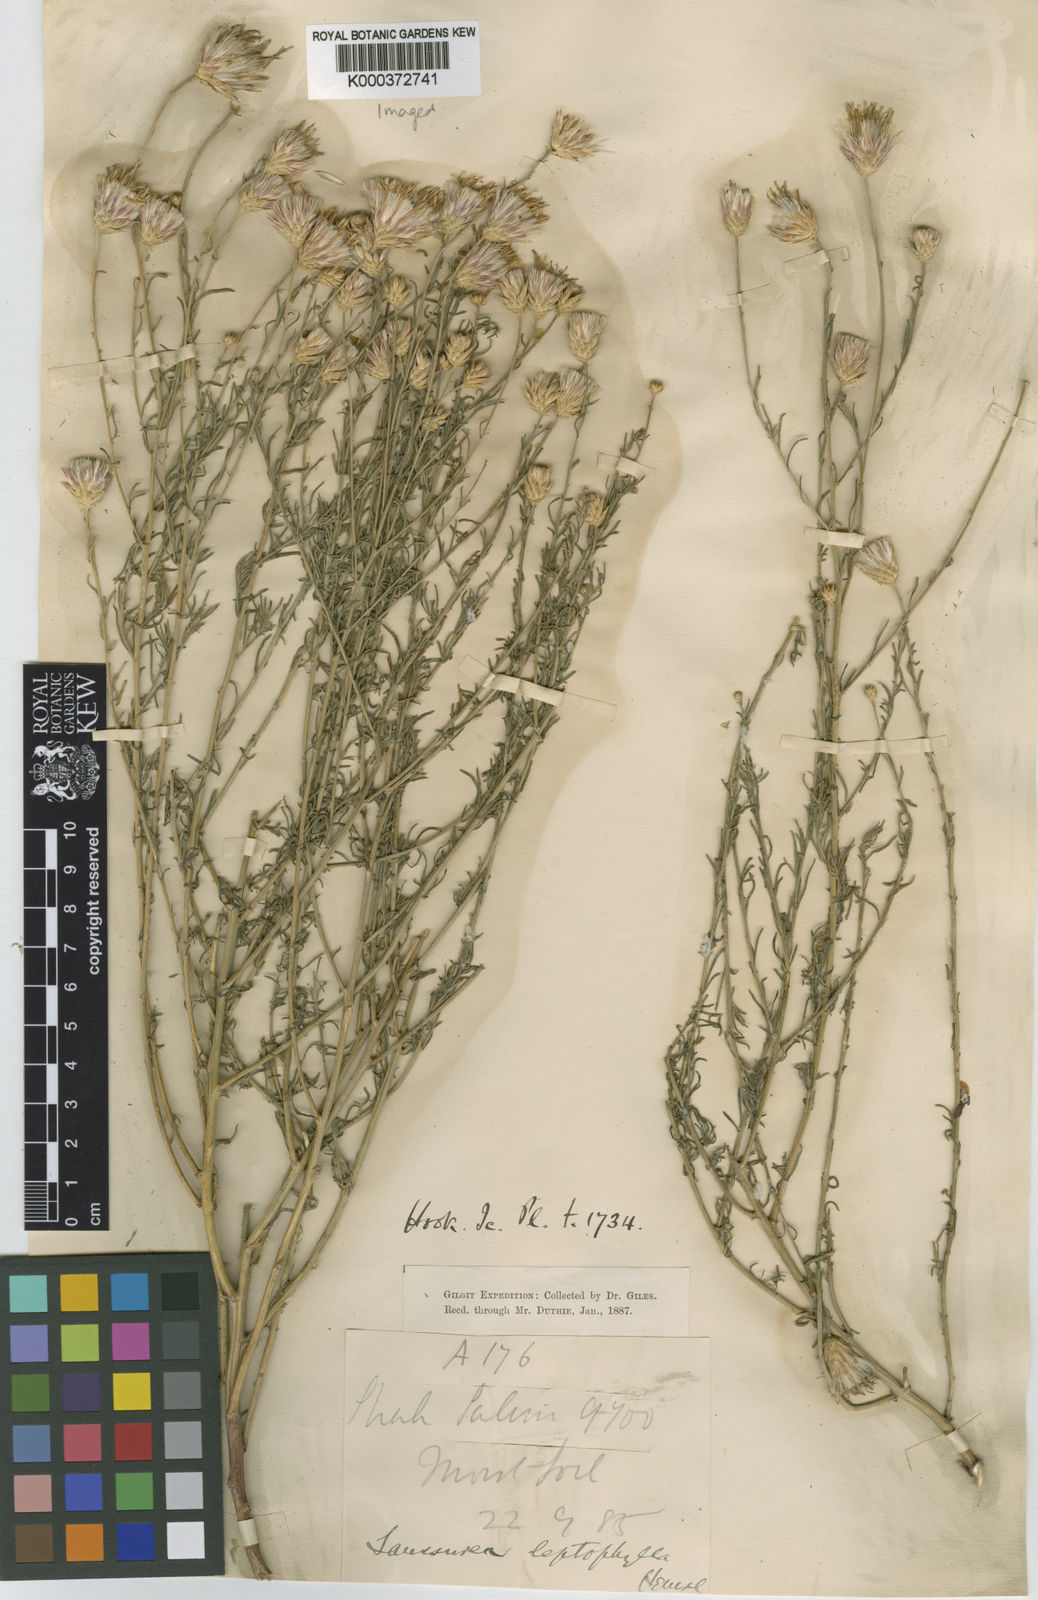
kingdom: Plantae
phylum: Tracheophyta
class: Magnoliopsida
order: Asterales
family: Asteraceae
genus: Jurinea
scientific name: Jurinea leptophylla
